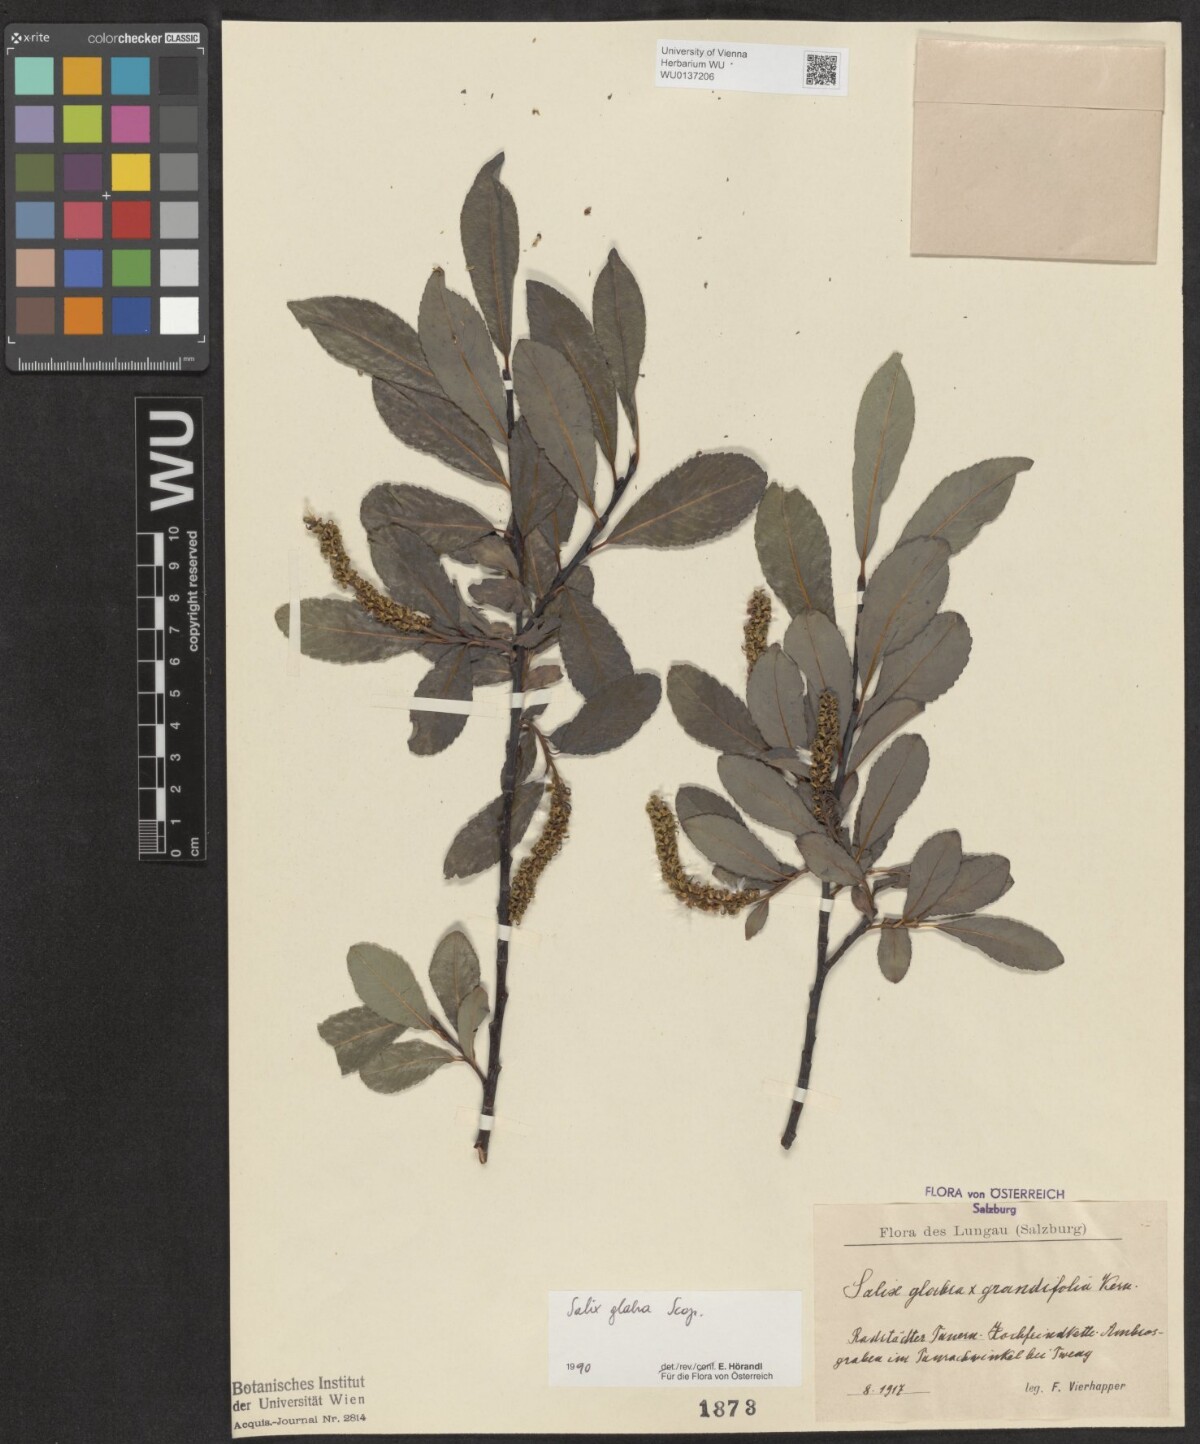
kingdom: Plantae
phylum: Tracheophyta
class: Magnoliopsida
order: Malpighiales
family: Salicaceae
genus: Salix
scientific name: Salix glabra
